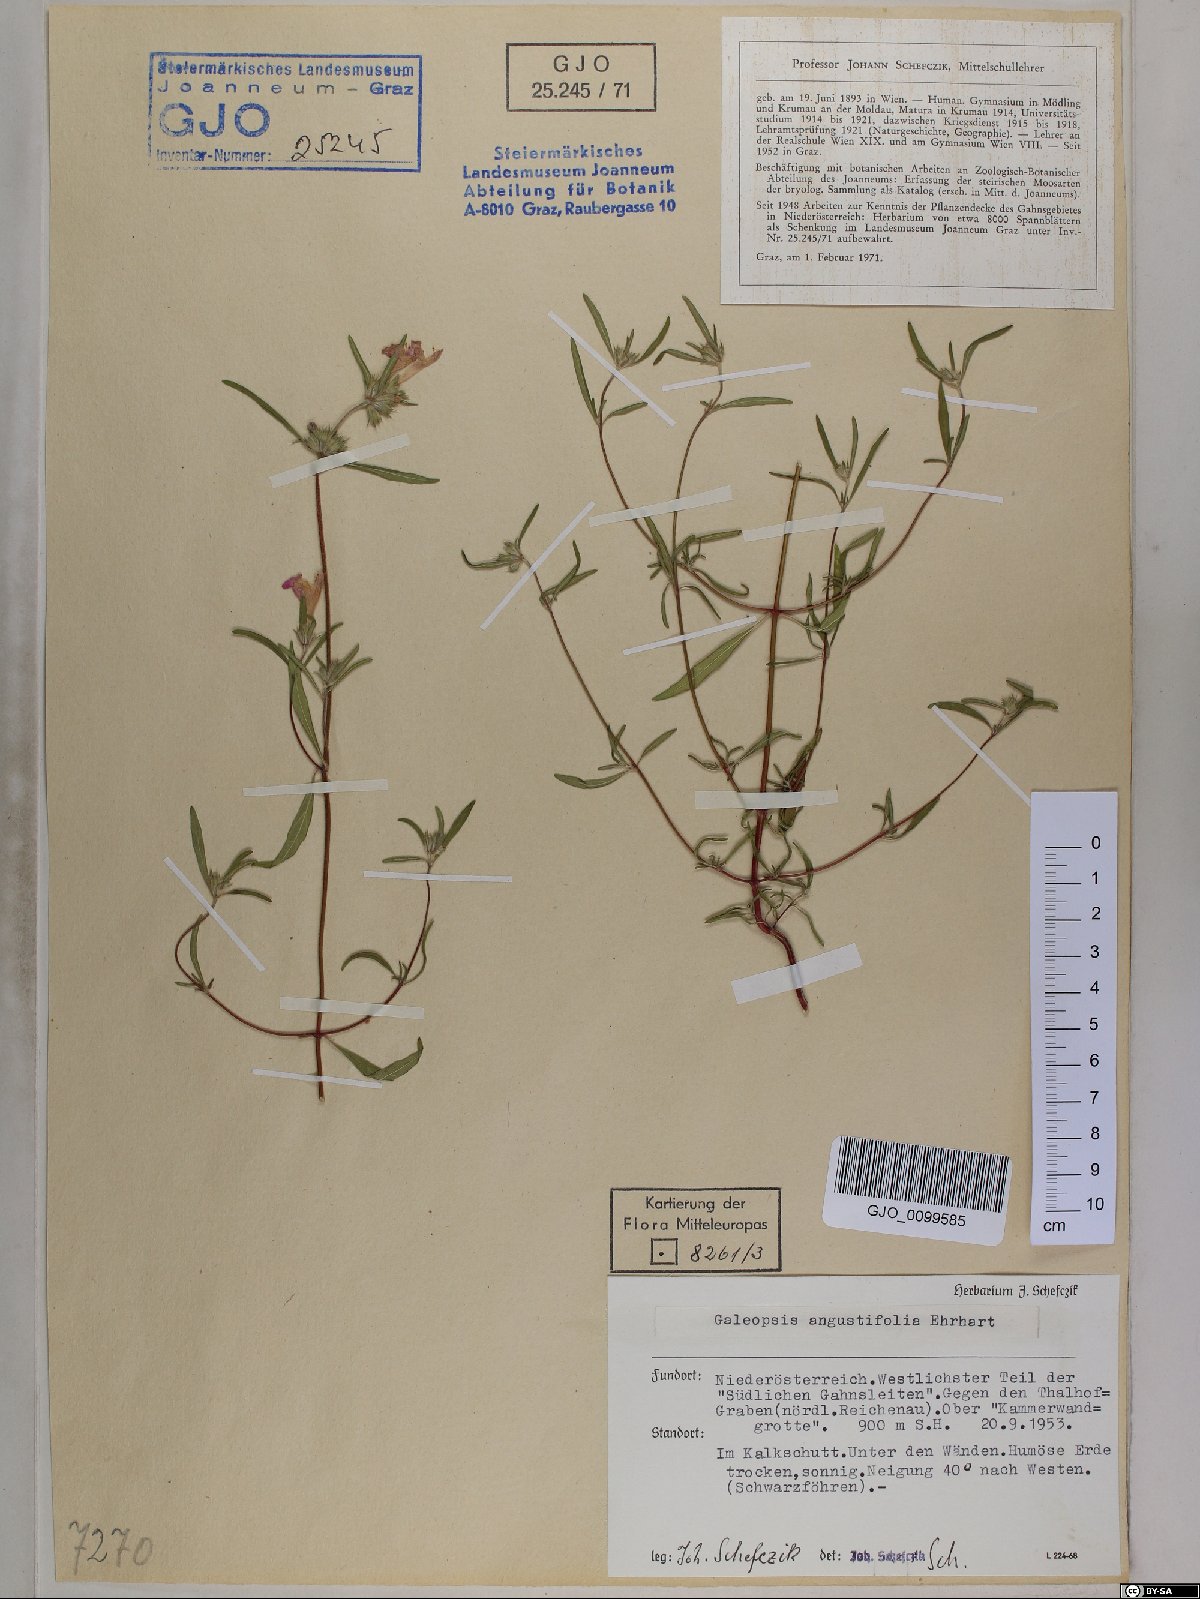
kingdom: Plantae
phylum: Tracheophyta
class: Magnoliopsida
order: Lamiales
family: Lamiaceae
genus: Galeopsis
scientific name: Galeopsis angustifolia
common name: Red hemp-nettle
